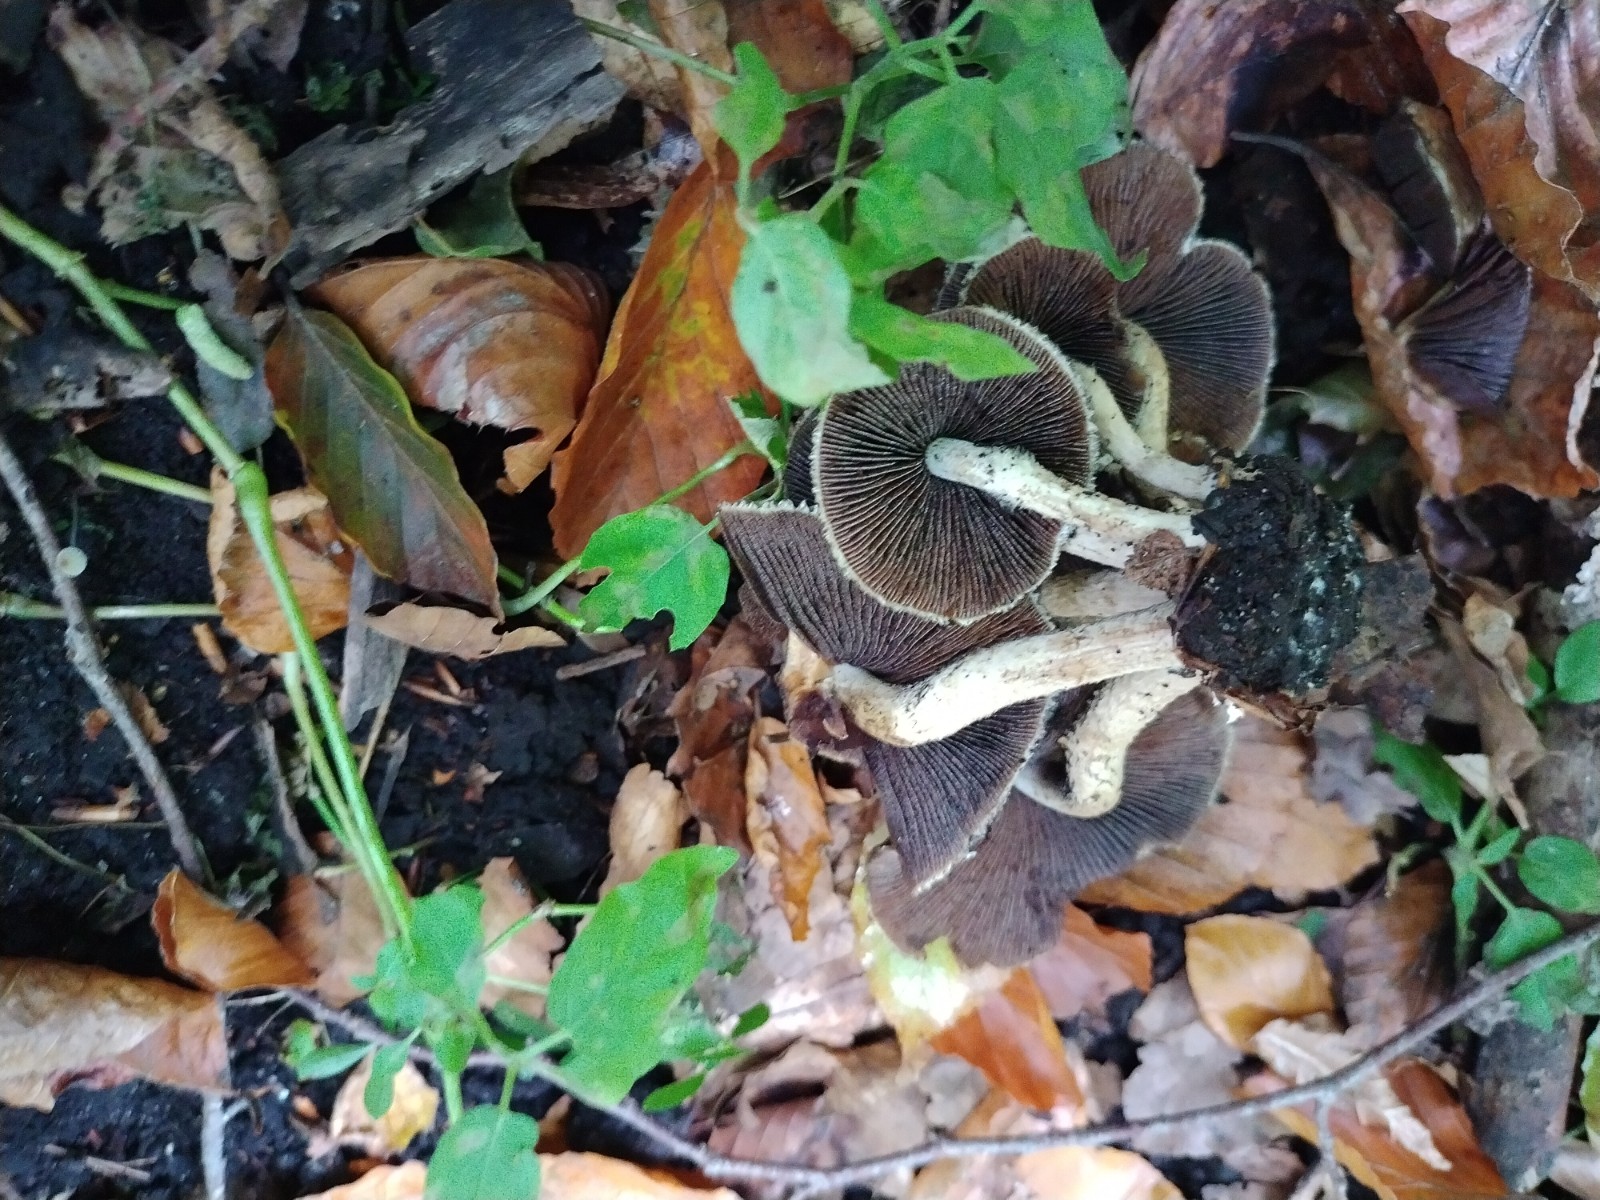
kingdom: Fungi
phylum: Basidiomycota
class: Agaricomycetes
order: Agaricales
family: Psathyrellaceae
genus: Psathyrella
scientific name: Psathyrella piluliformis
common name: lysstokket mørkhat
